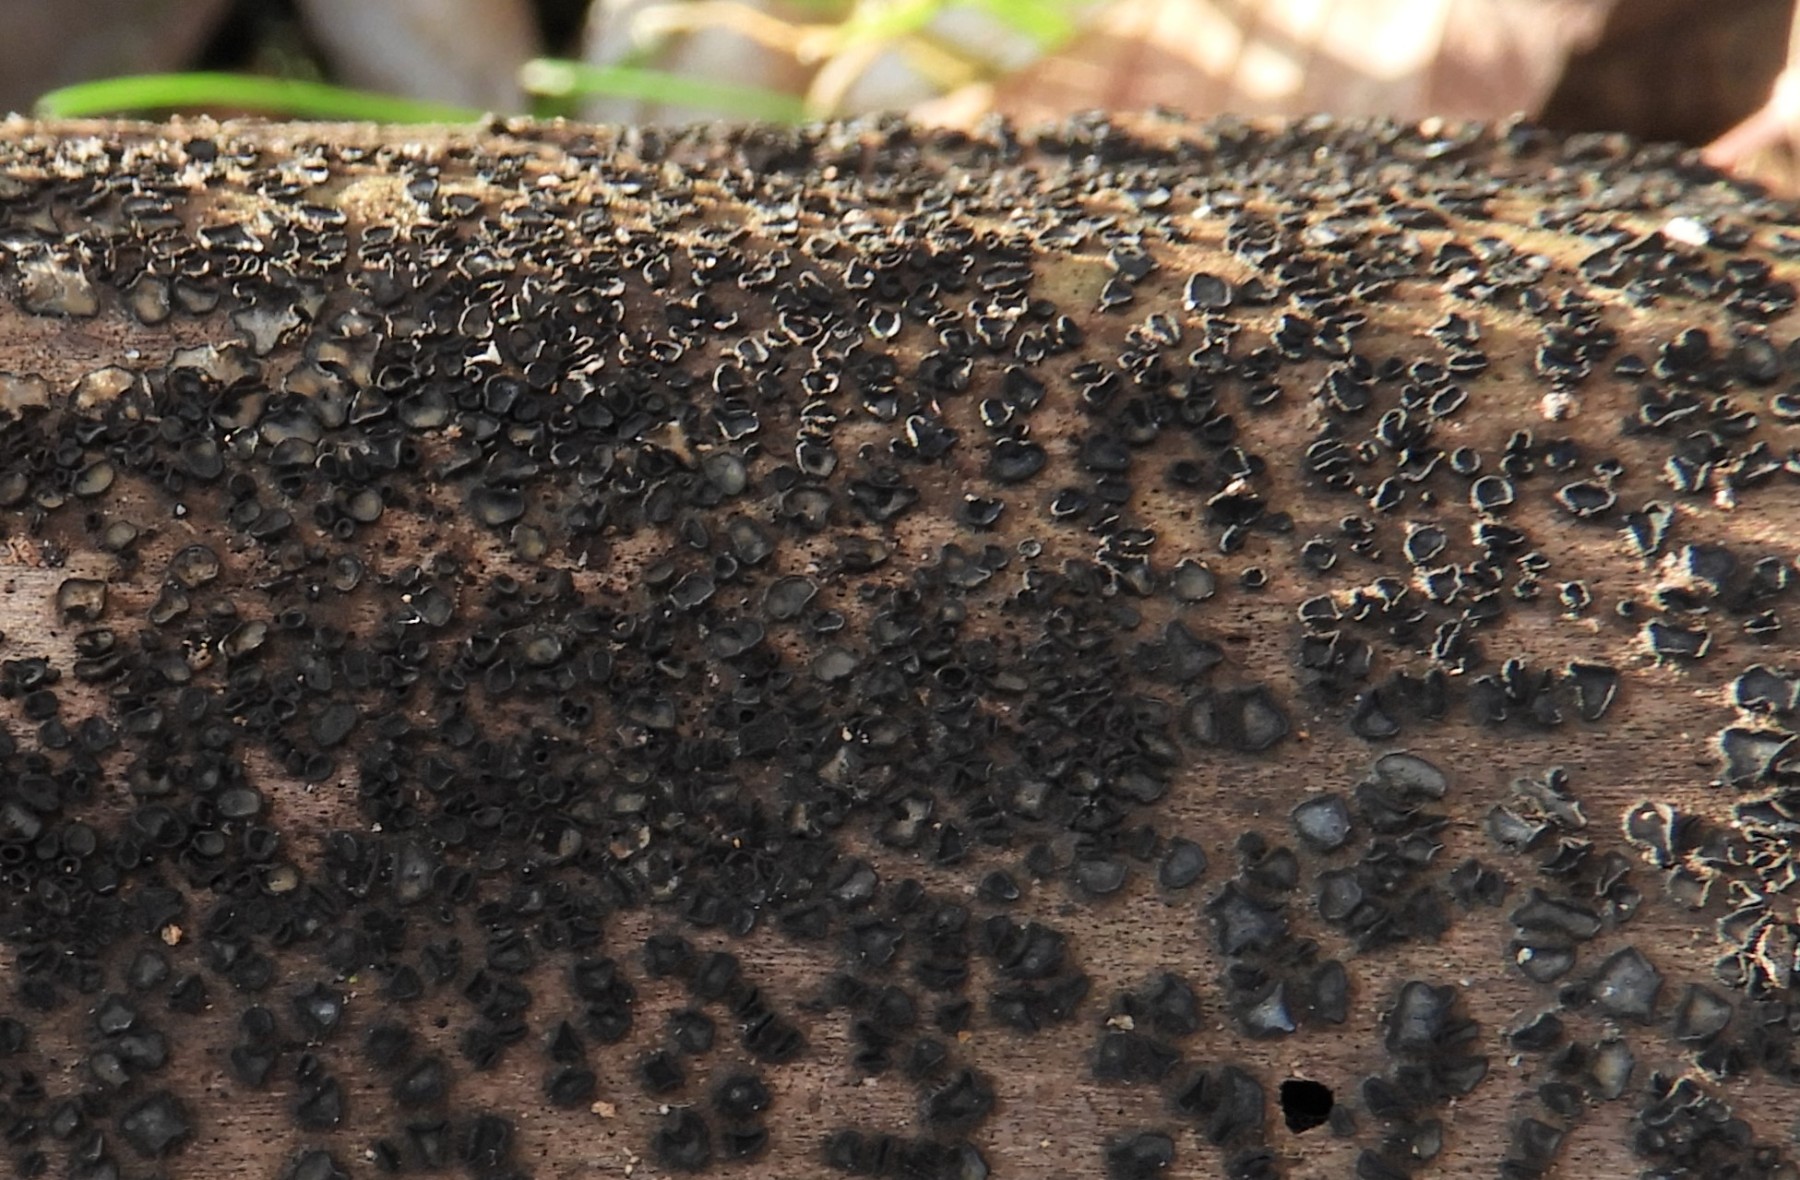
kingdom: Fungi
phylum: Ascomycota
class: Leotiomycetes
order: Helotiales
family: Mollisiaceae
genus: Mollisia
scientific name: Mollisia
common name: gråskive
